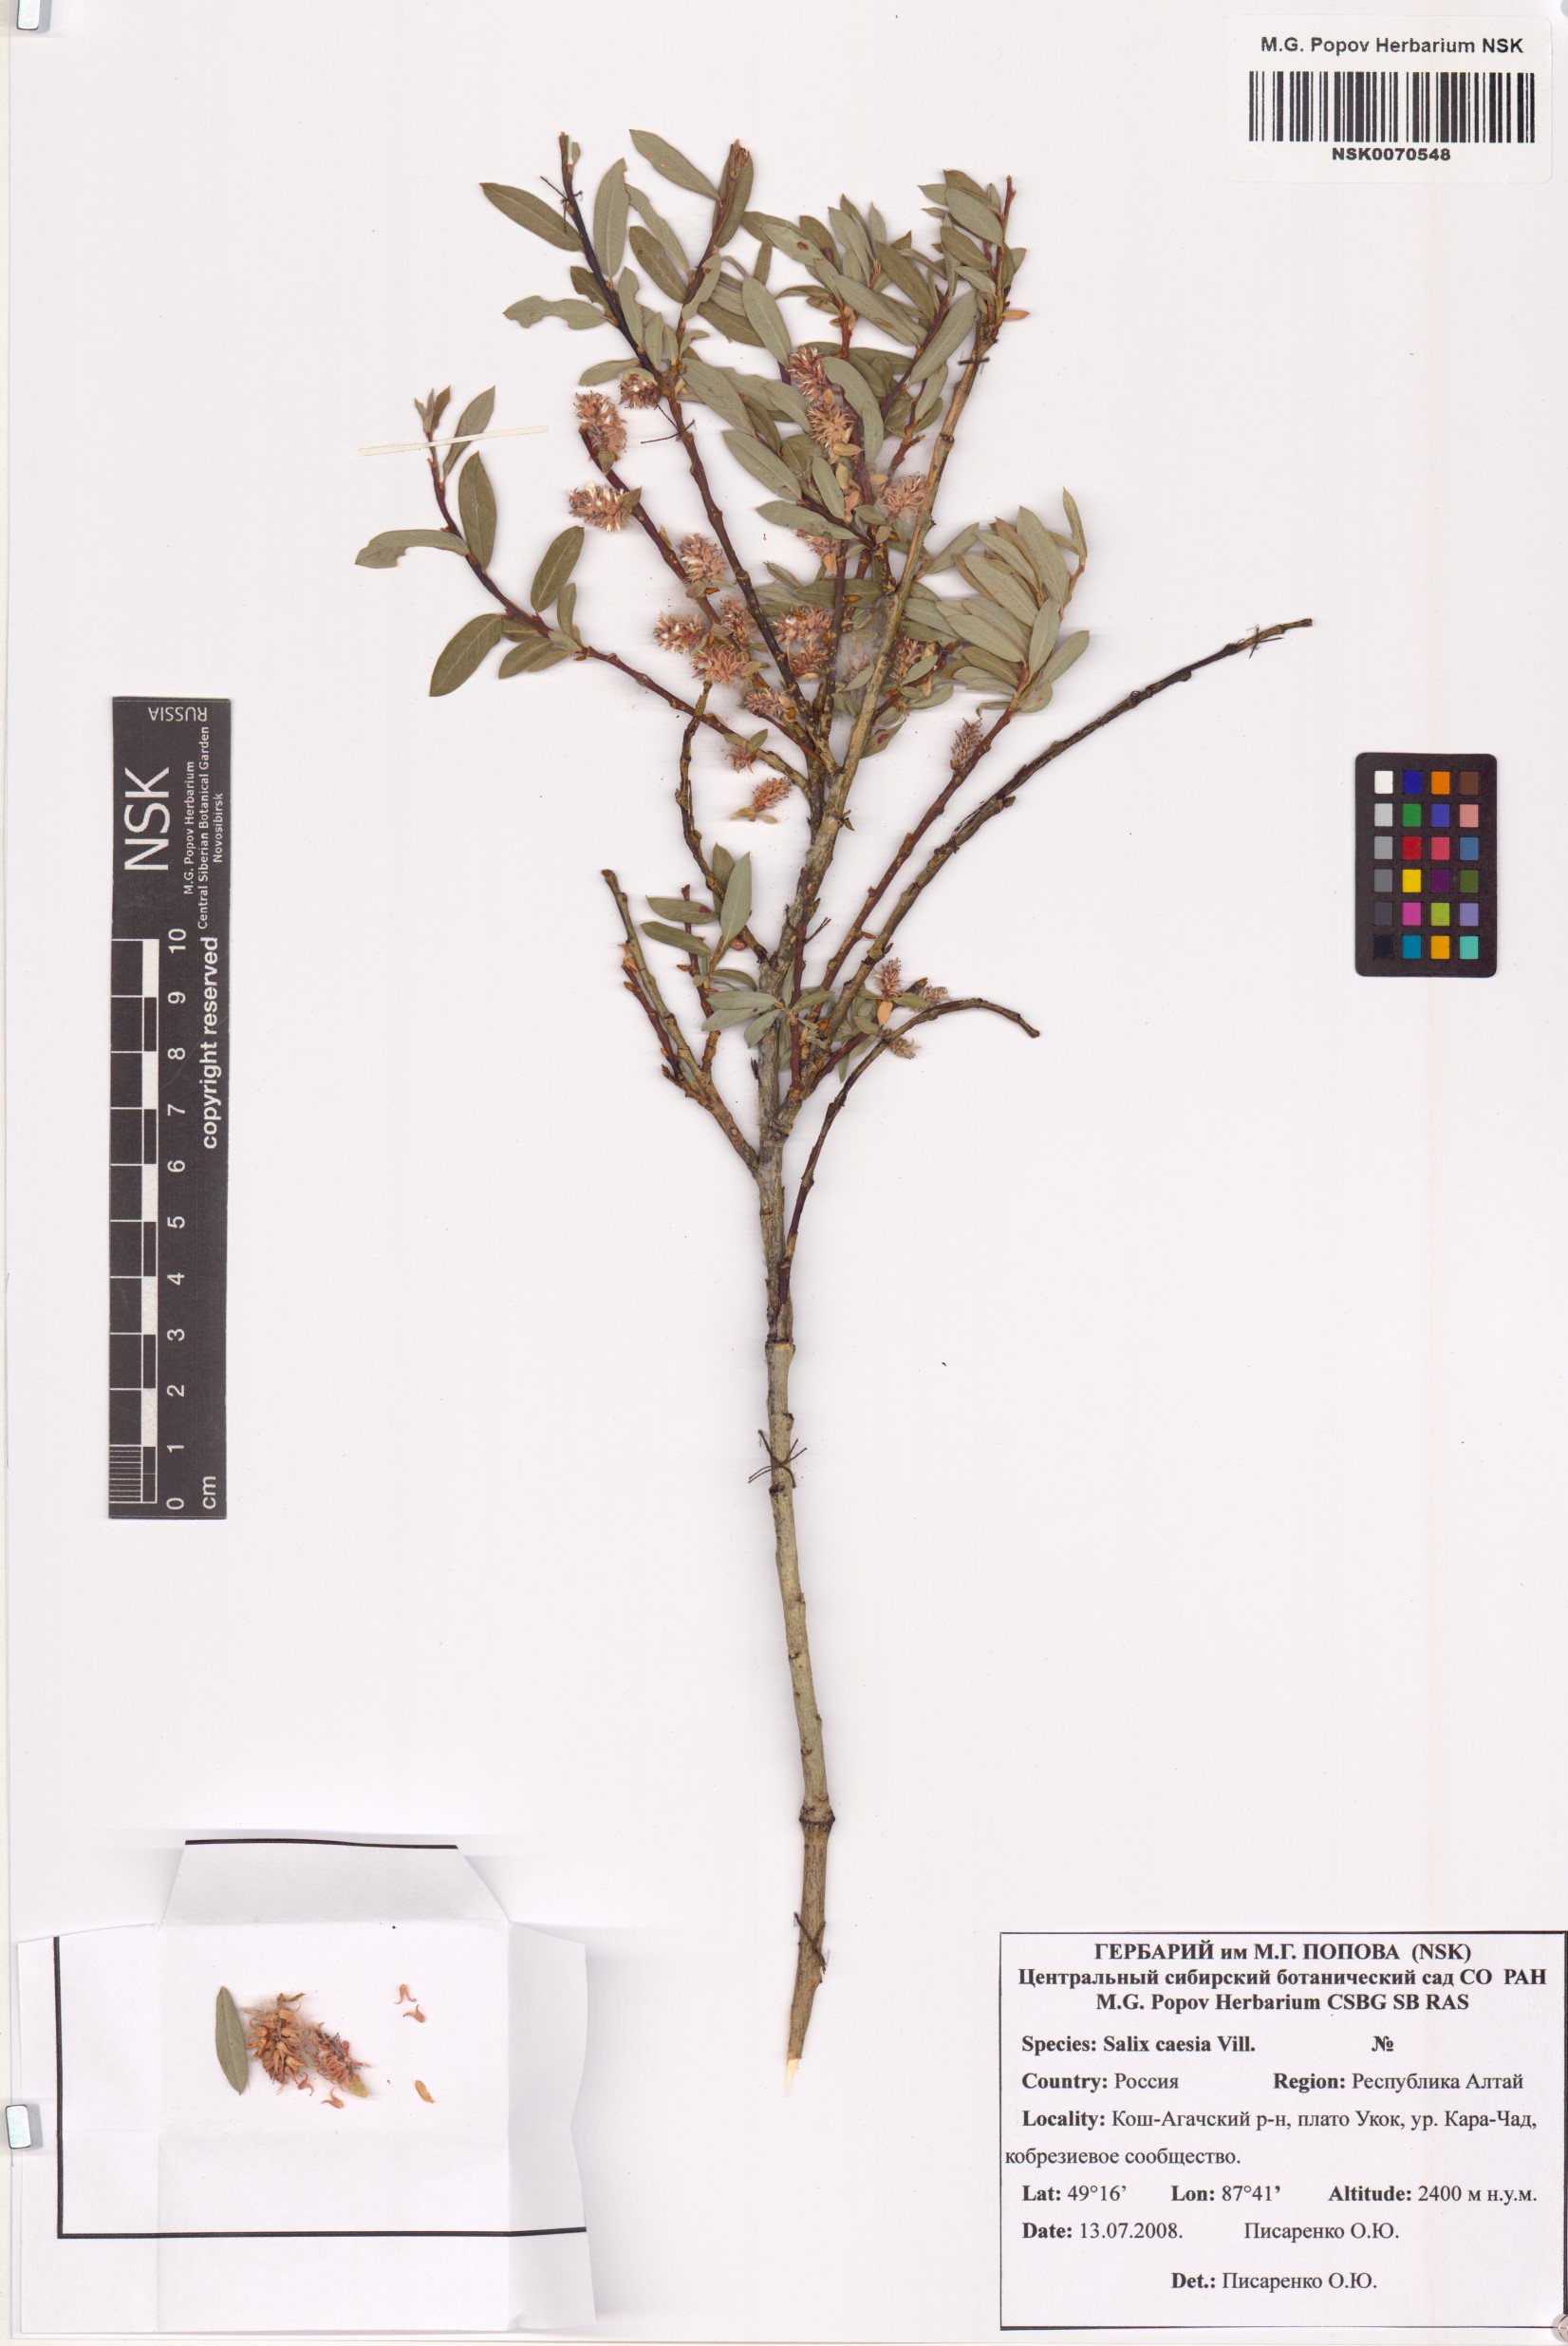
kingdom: Plantae
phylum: Tracheophyta
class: Magnoliopsida
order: Malpighiales
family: Salicaceae
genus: Salix
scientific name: Salix caesia
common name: Blue willow
